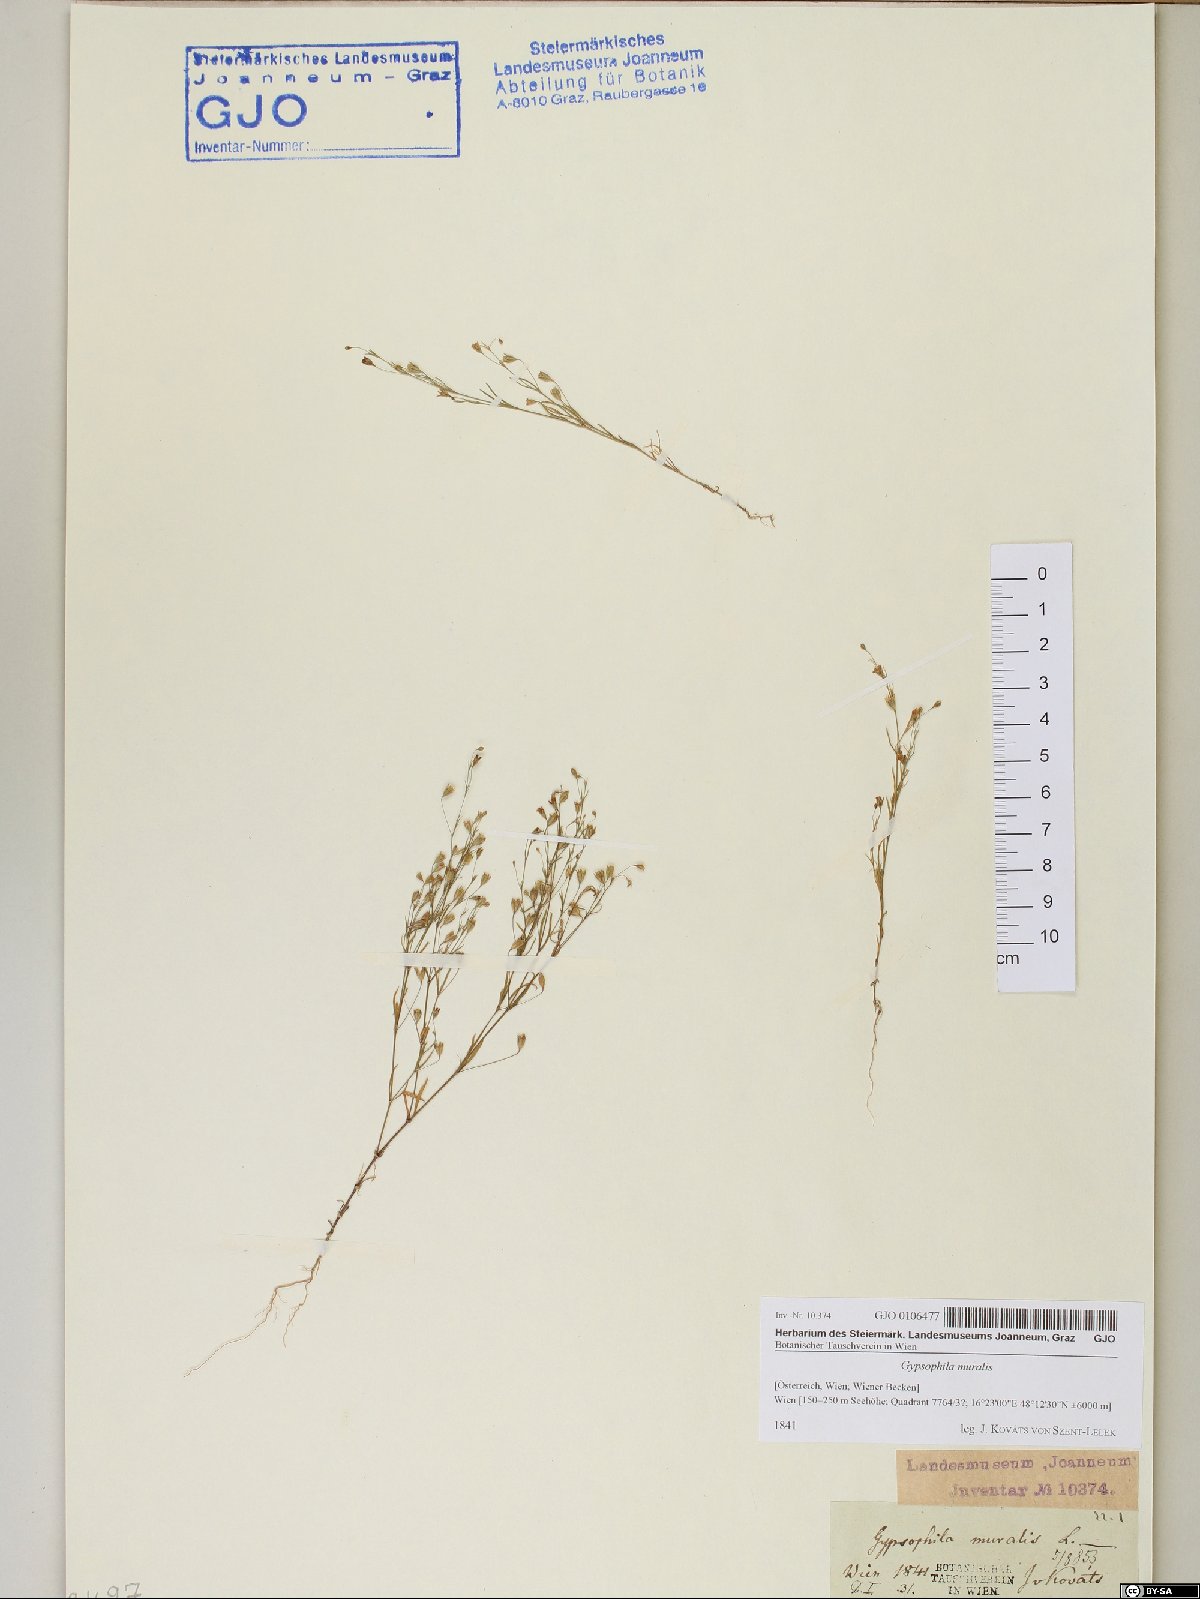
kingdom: Plantae
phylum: Tracheophyta
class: Magnoliopsida
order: Caryophyllales
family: Caryophyllaceae
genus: Psammophiliella
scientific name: Psammophiliella muralis
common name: Cushion baby's-breath
